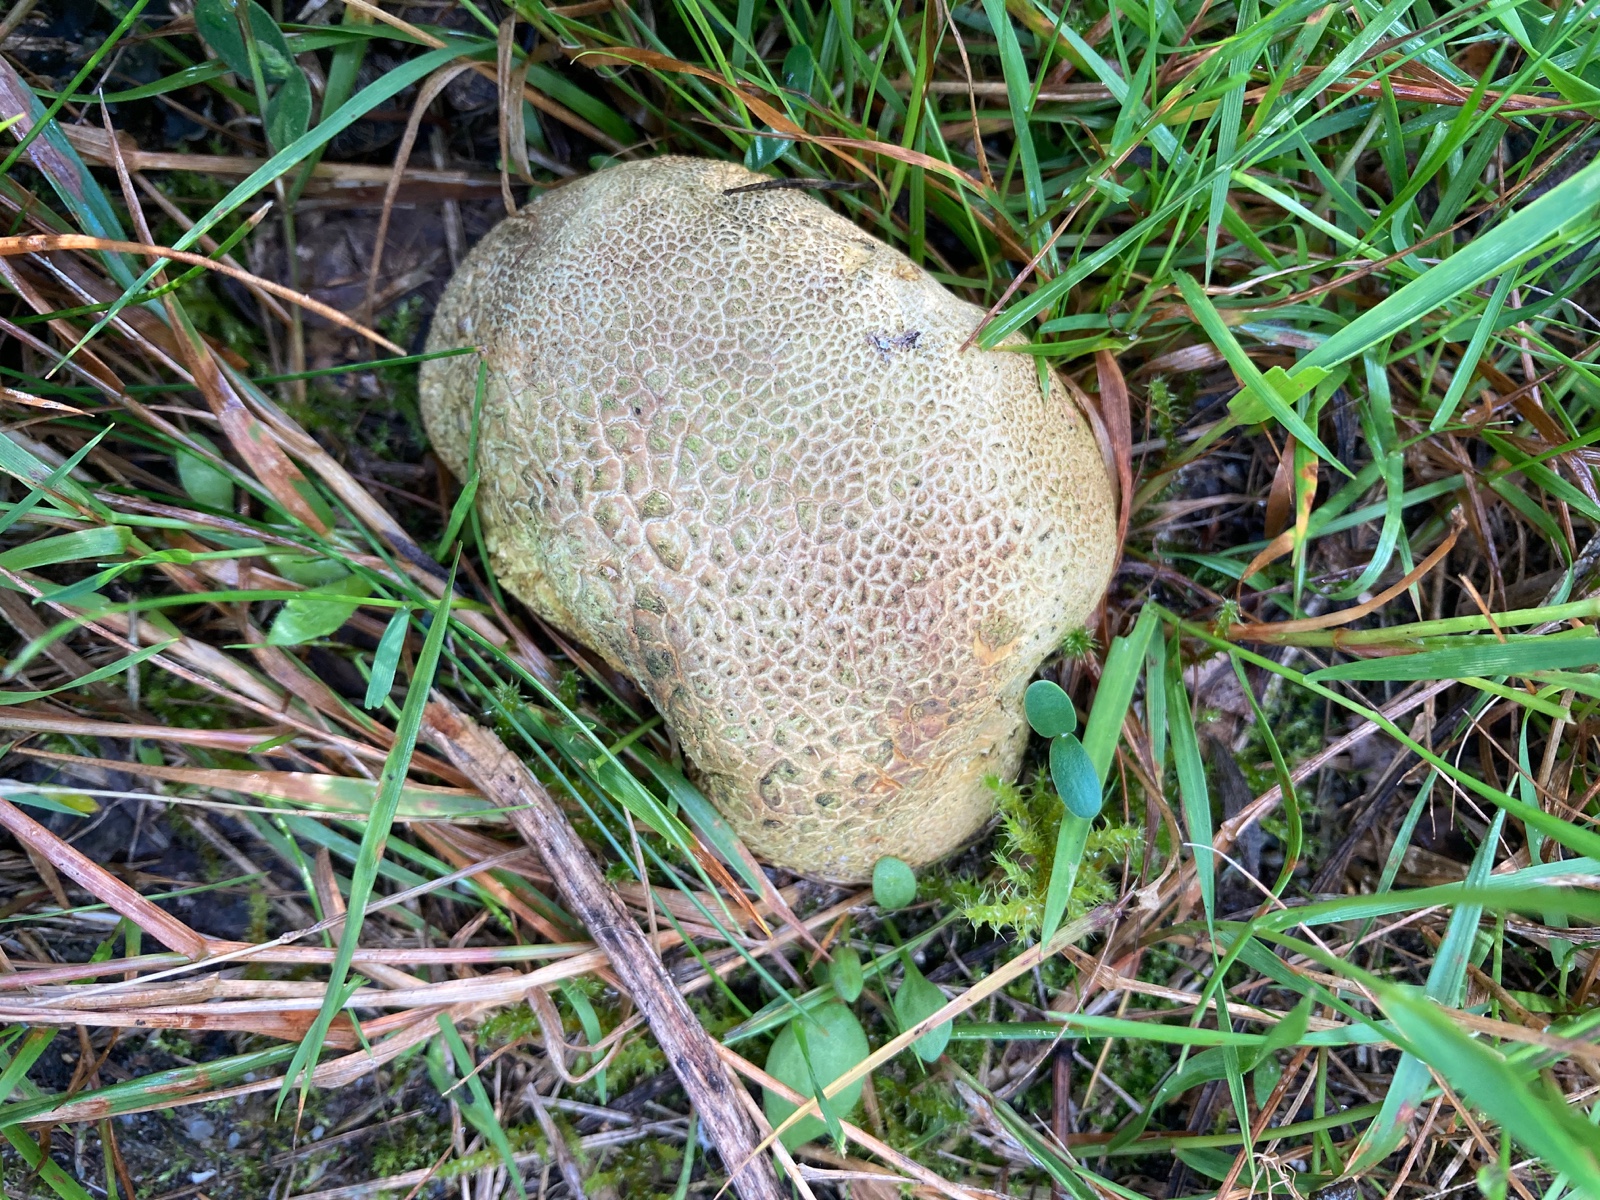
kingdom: Fungi
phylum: Basidiomycota
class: Agaricomycetes
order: Boletales
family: Sclerodermataceae
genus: Scleroderma
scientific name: Scleroderma citrinum
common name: almindelig bruskbold
